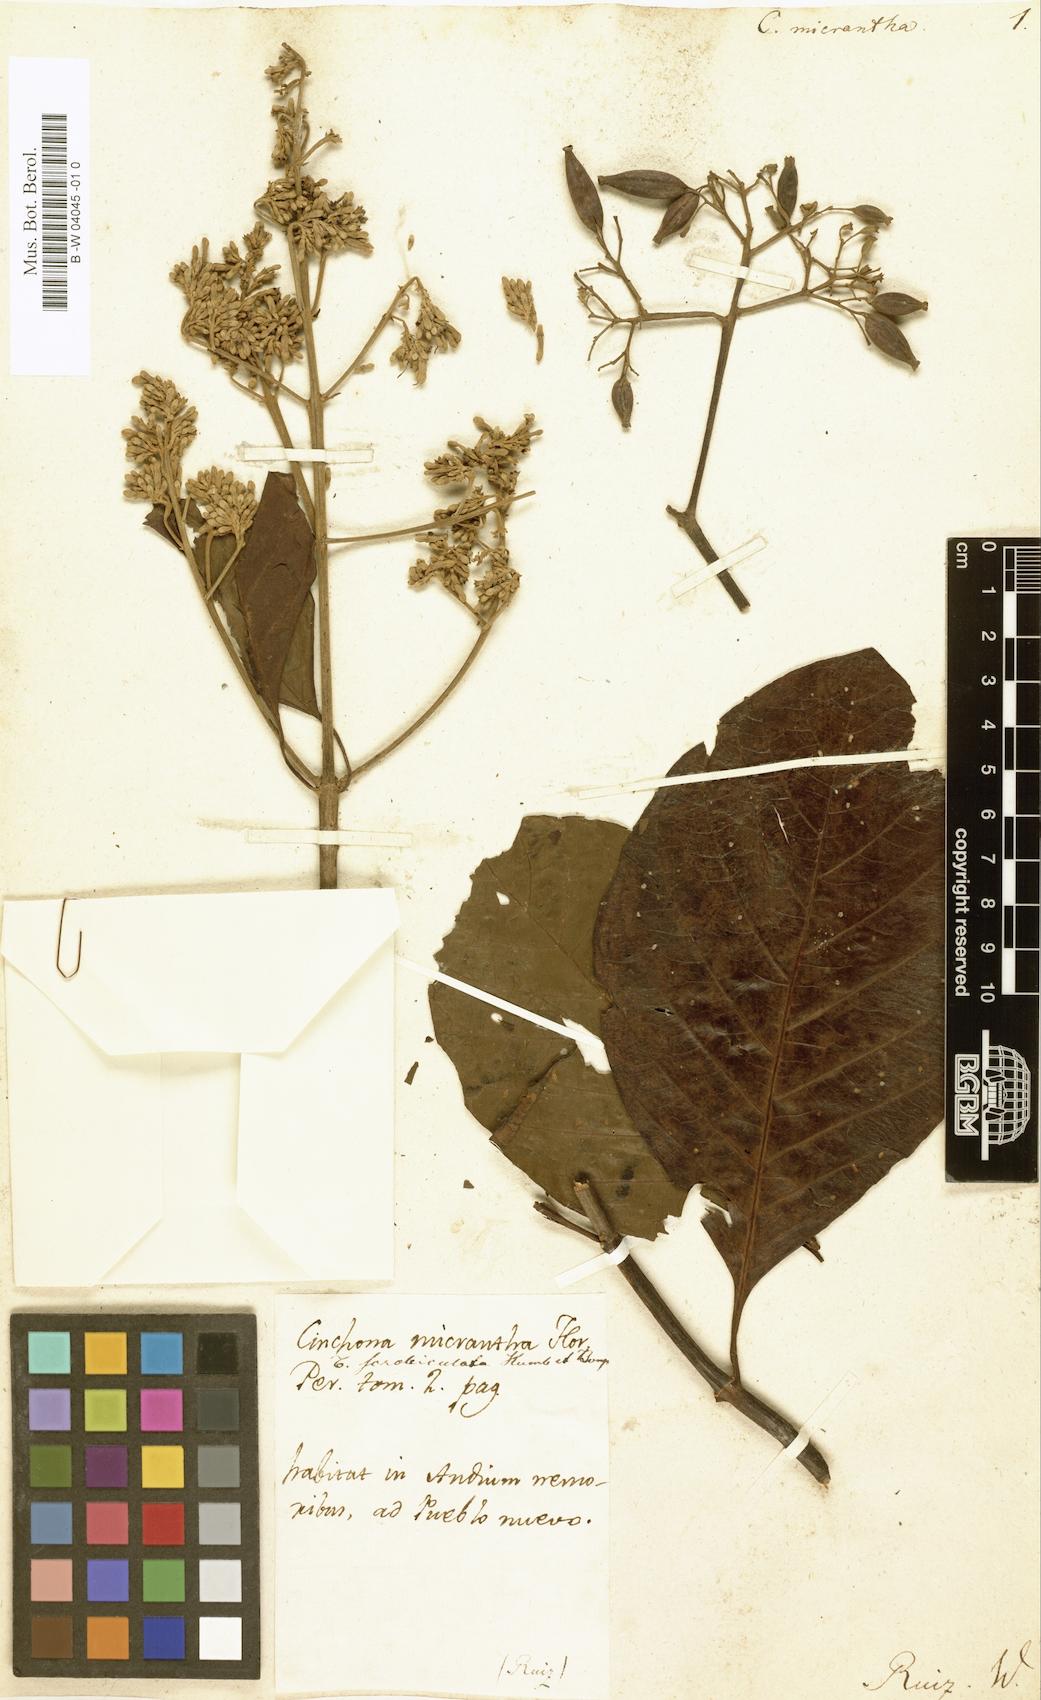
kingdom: Plantae
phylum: Tracheophyta
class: Magnoliopsida
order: Gentianales
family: Rubiaceae
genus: Cinchona
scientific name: Cinchona micrantha
